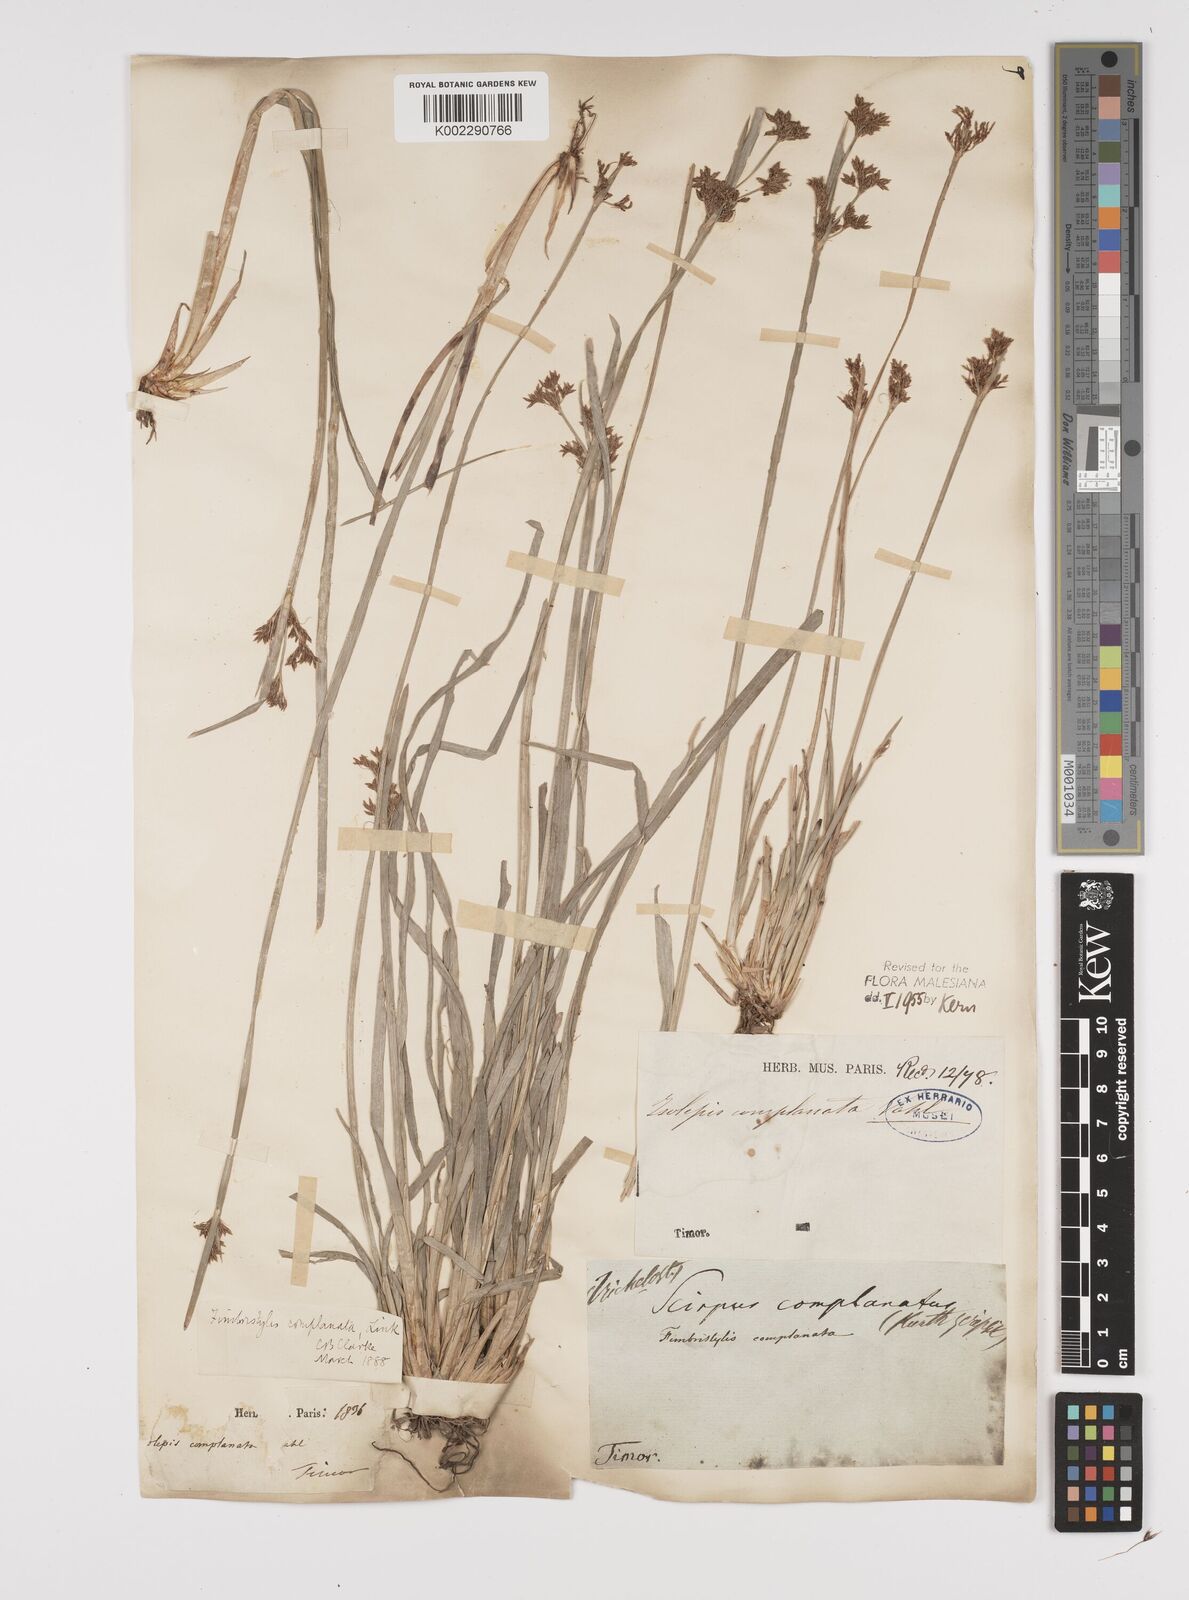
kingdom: Plantae
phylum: Tracheophyta
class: Liliopsida
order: Poales
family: Cyperaceae
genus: Fimbristylis
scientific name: Fimbristylis complanata
